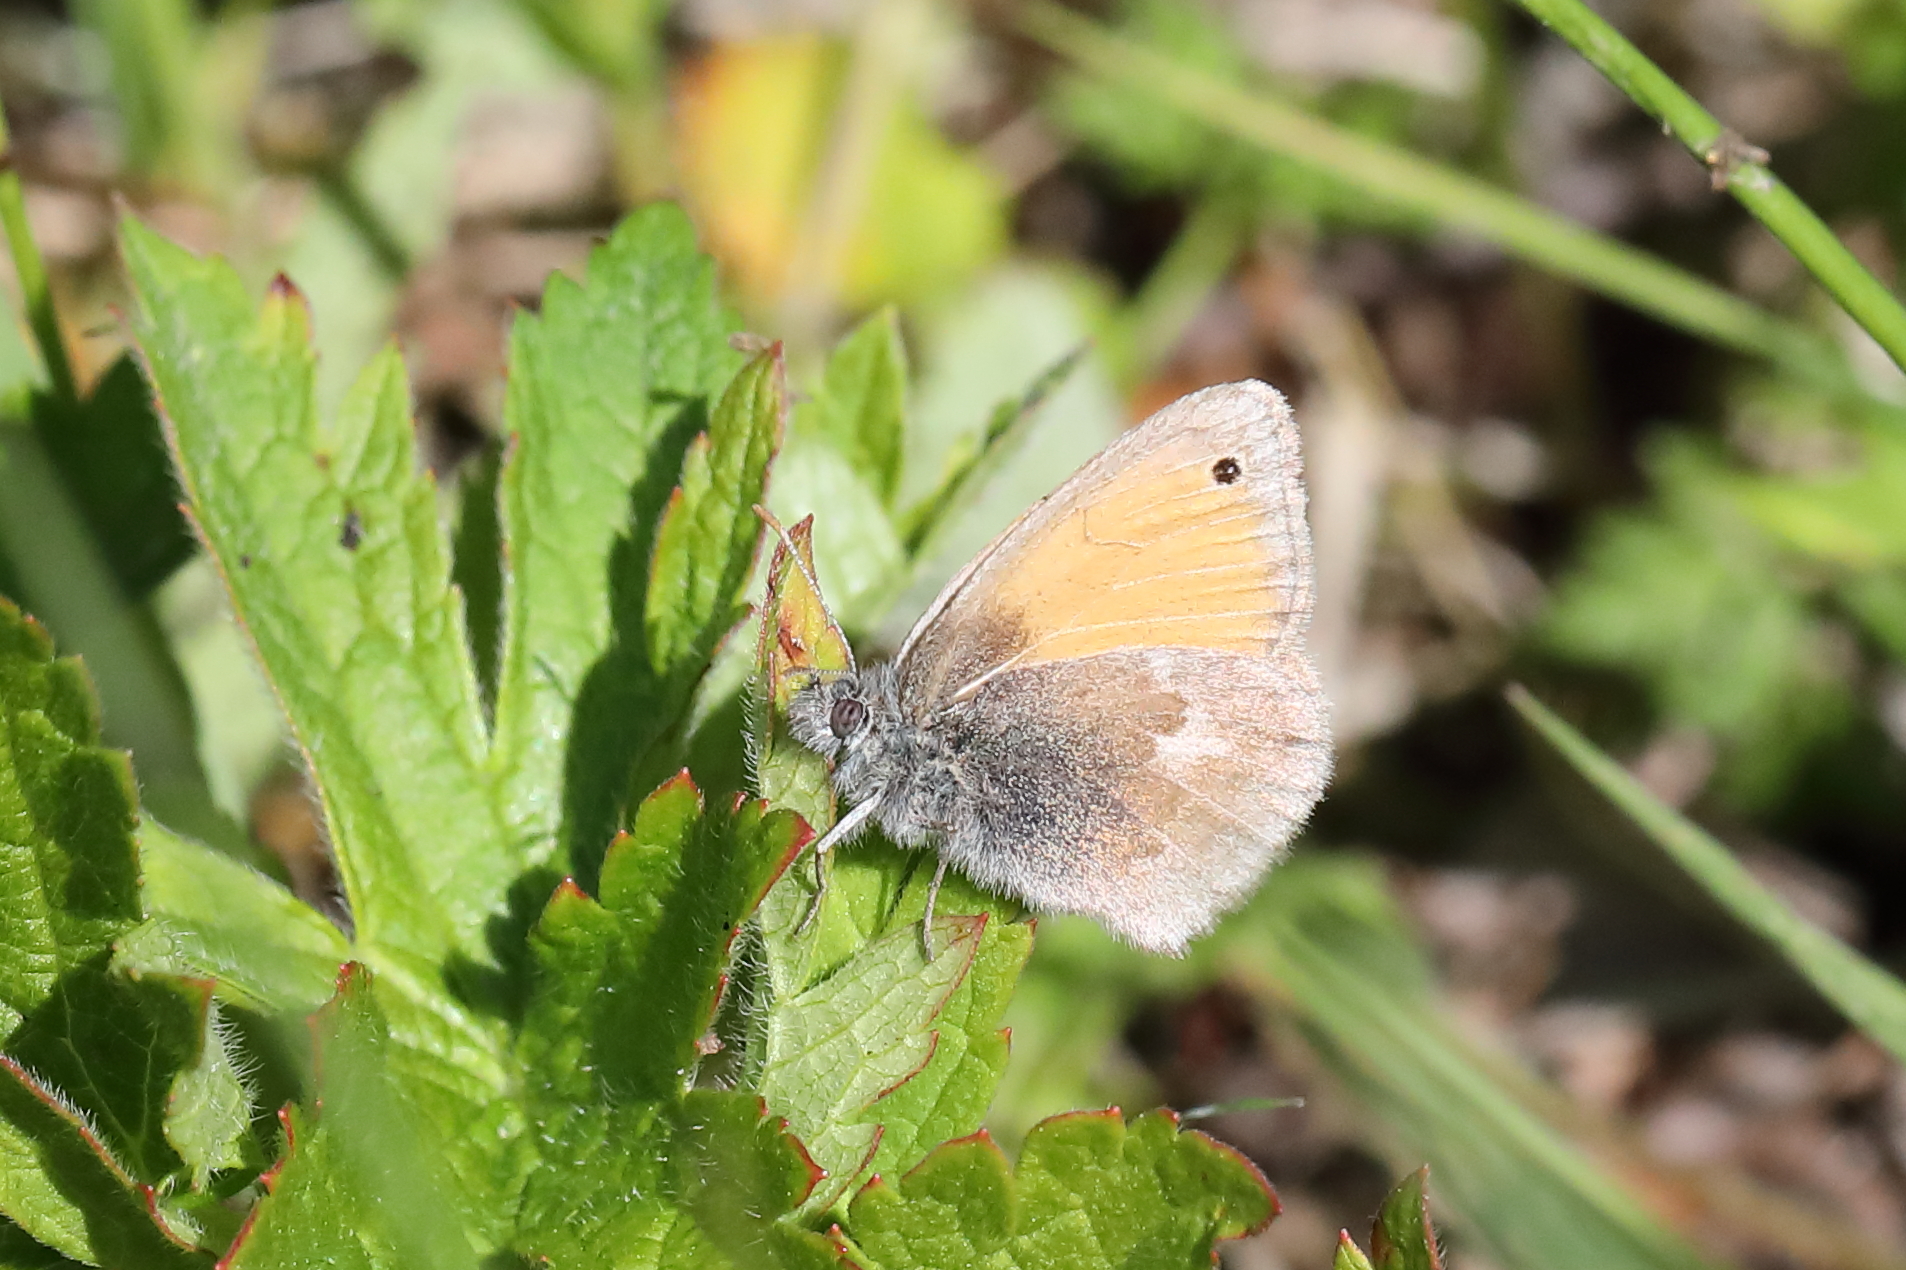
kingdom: Animalia
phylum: Arthropoda
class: Insecta
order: Lepidoptera
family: Nymphalidae
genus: Coenonympha
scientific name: Coenonympha pamphilus
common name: Small heath
